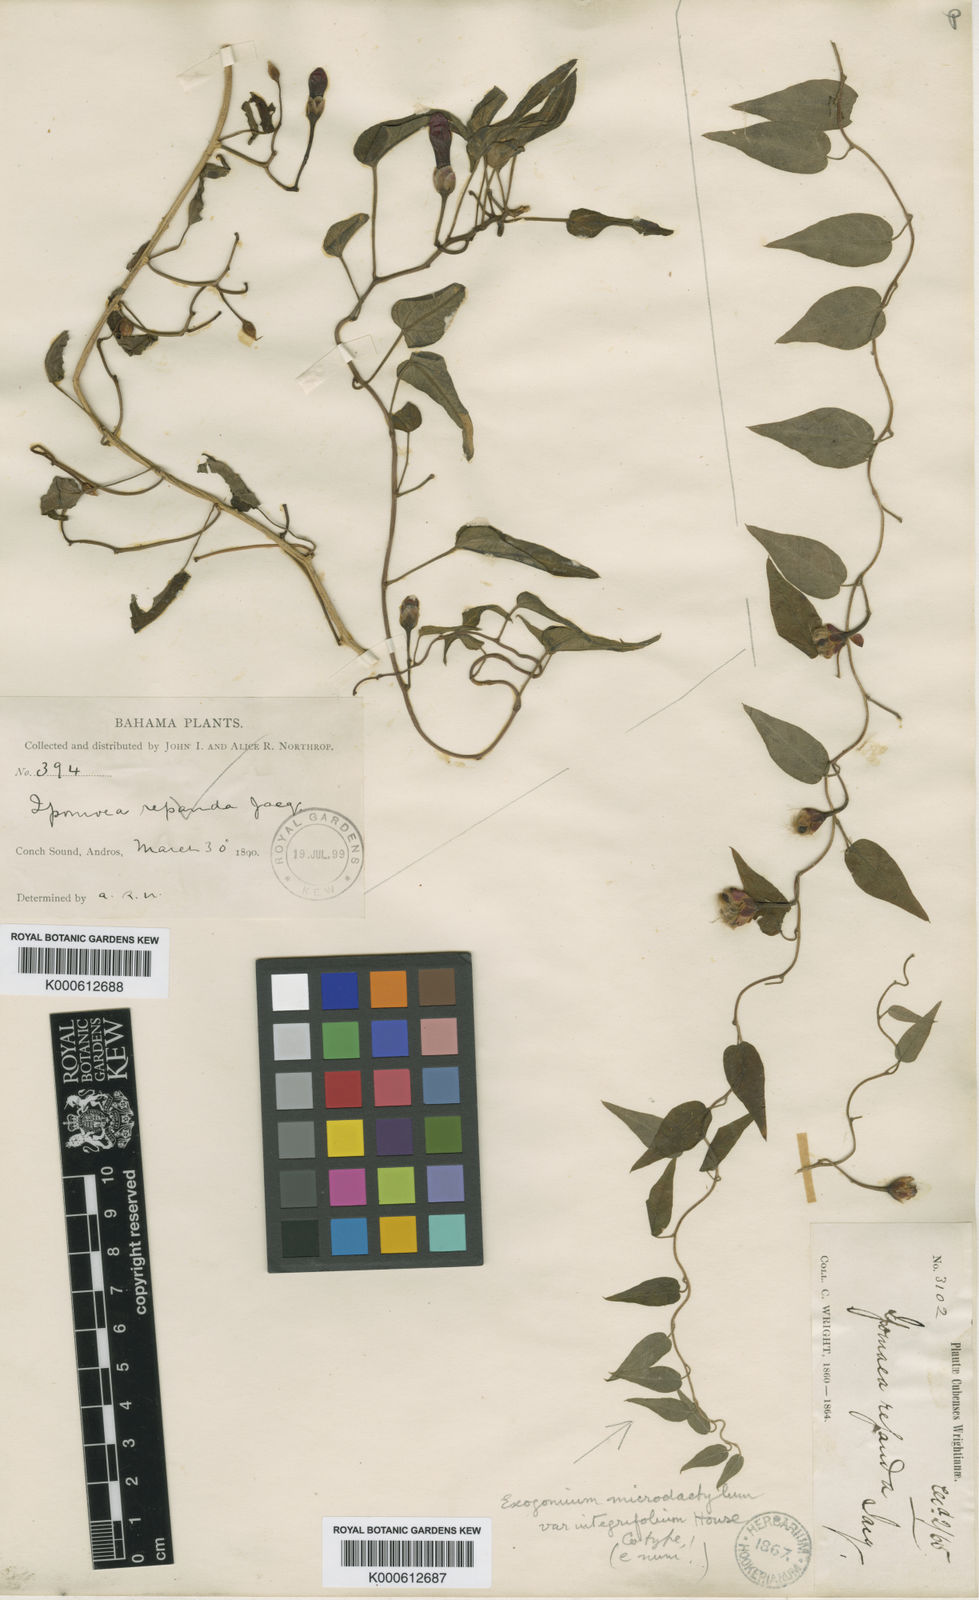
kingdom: Plantae
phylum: Tracheophyta
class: Magnoliopsida
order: Solanales
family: Convolvulaceae
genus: Ipomoea
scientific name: Ipomoea microdactyla
